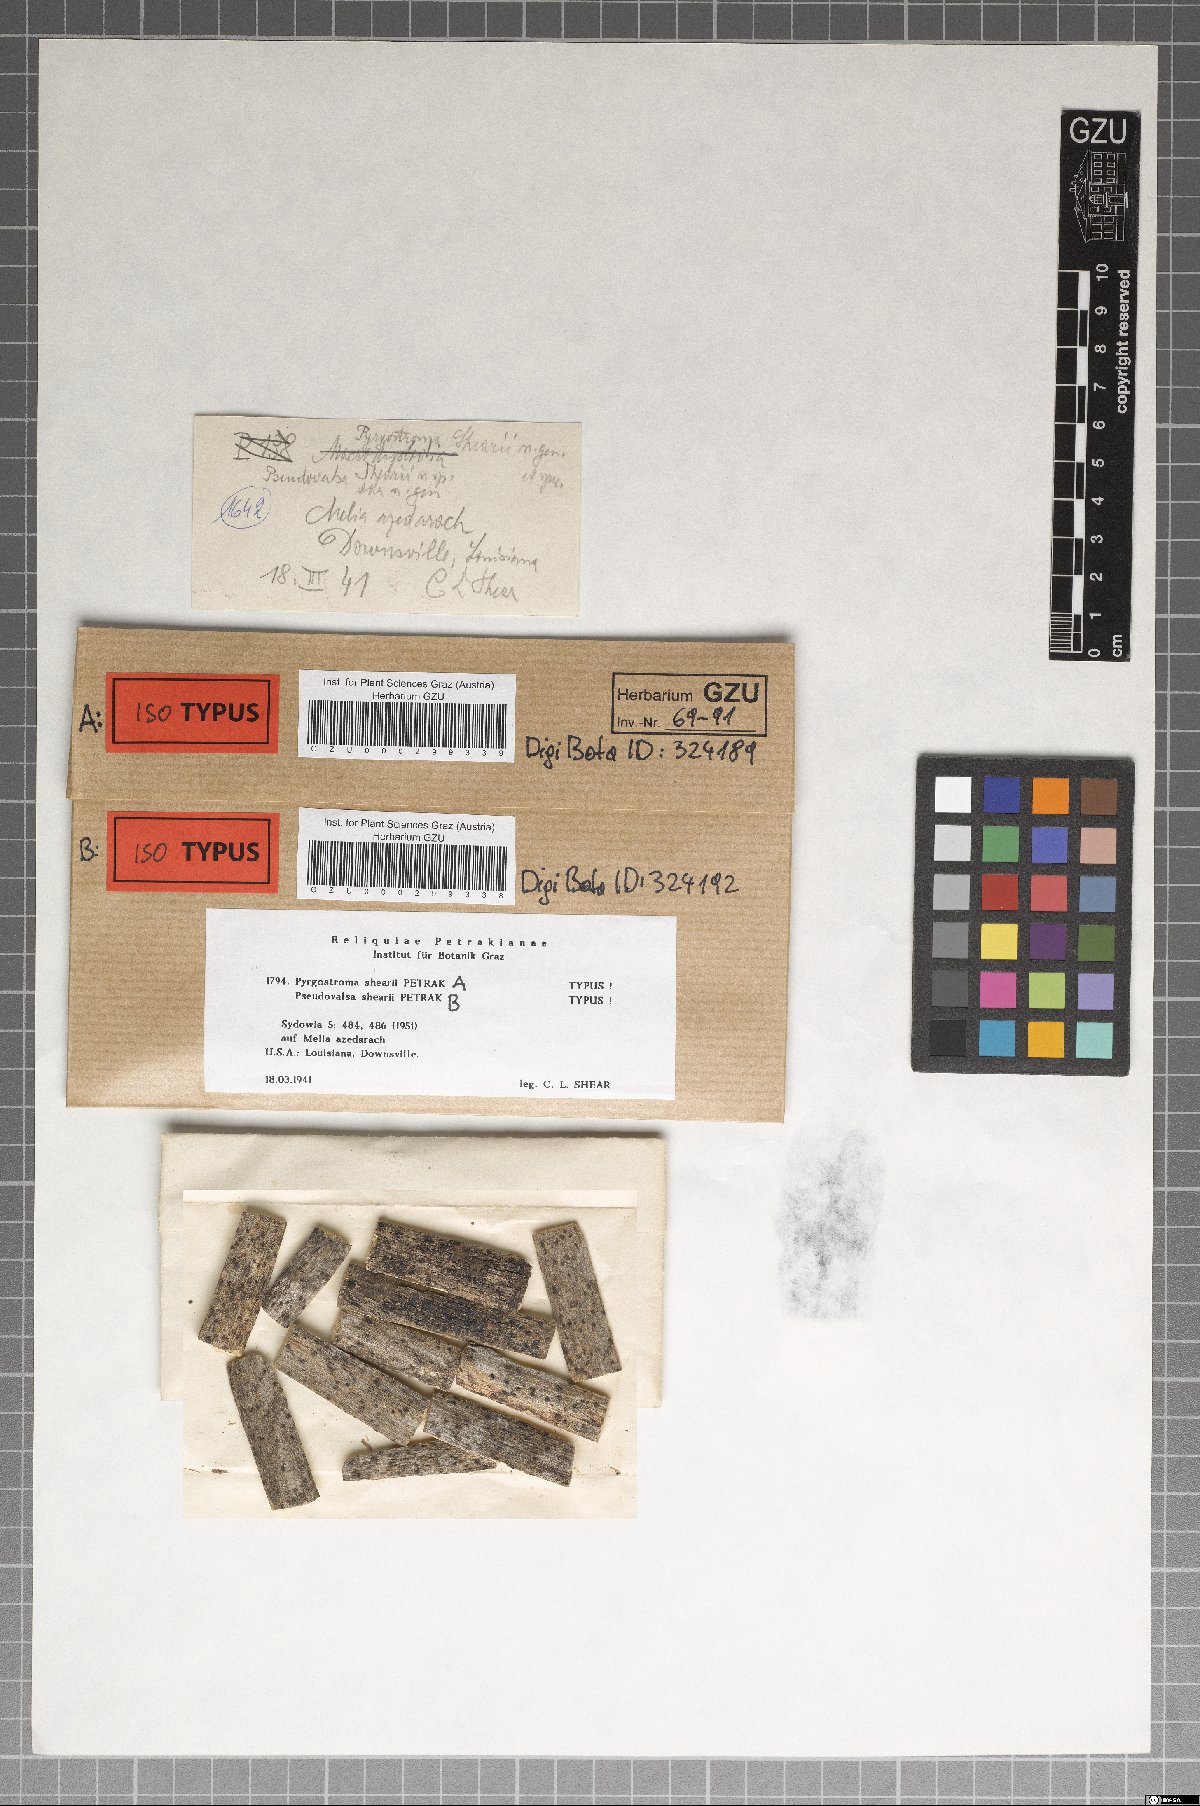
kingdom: Fungi
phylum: Ascomycota
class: Sordariomycetes
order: Diaporthales
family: Coryneaceae
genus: Pseudovalsa
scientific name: Pseudovalsa shearii
